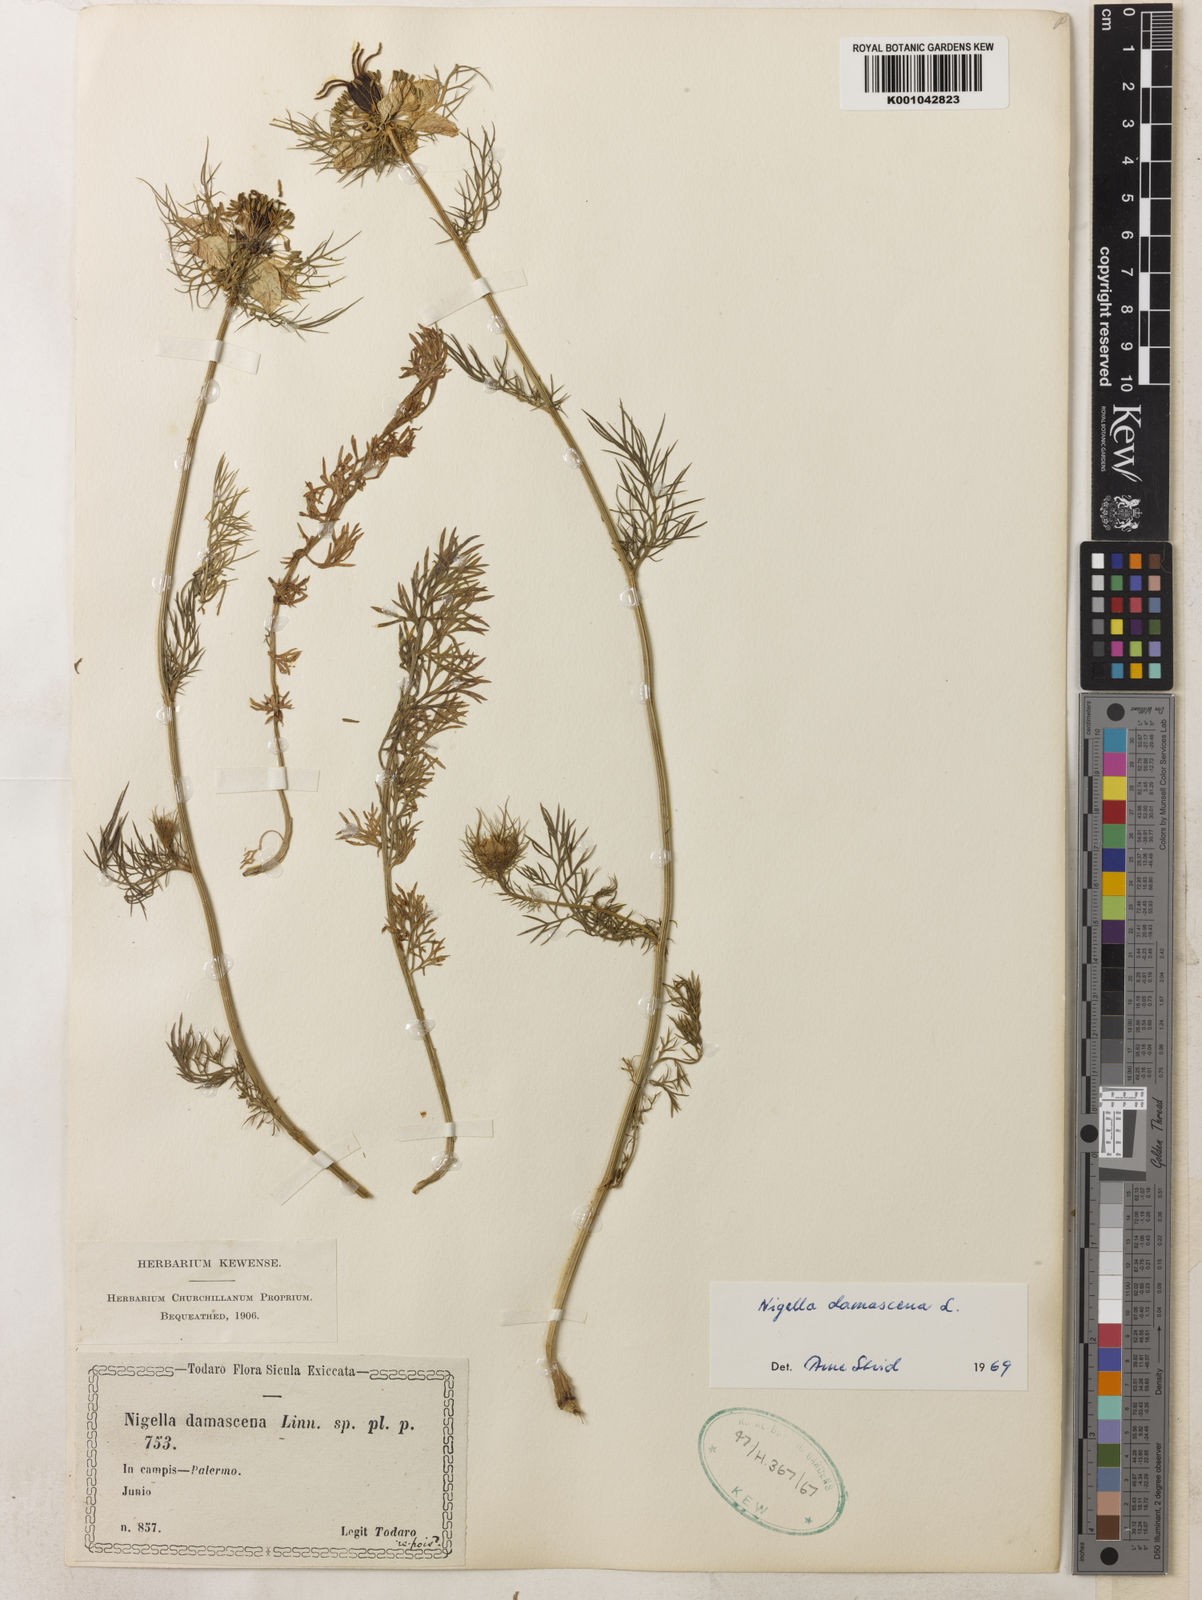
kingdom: Plantae
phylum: Tracheophyta
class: Magnoliopsida
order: Ranunculales
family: Ranunculaceae
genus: Nigella
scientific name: Nigella damascena
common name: Love-in-a-mist
